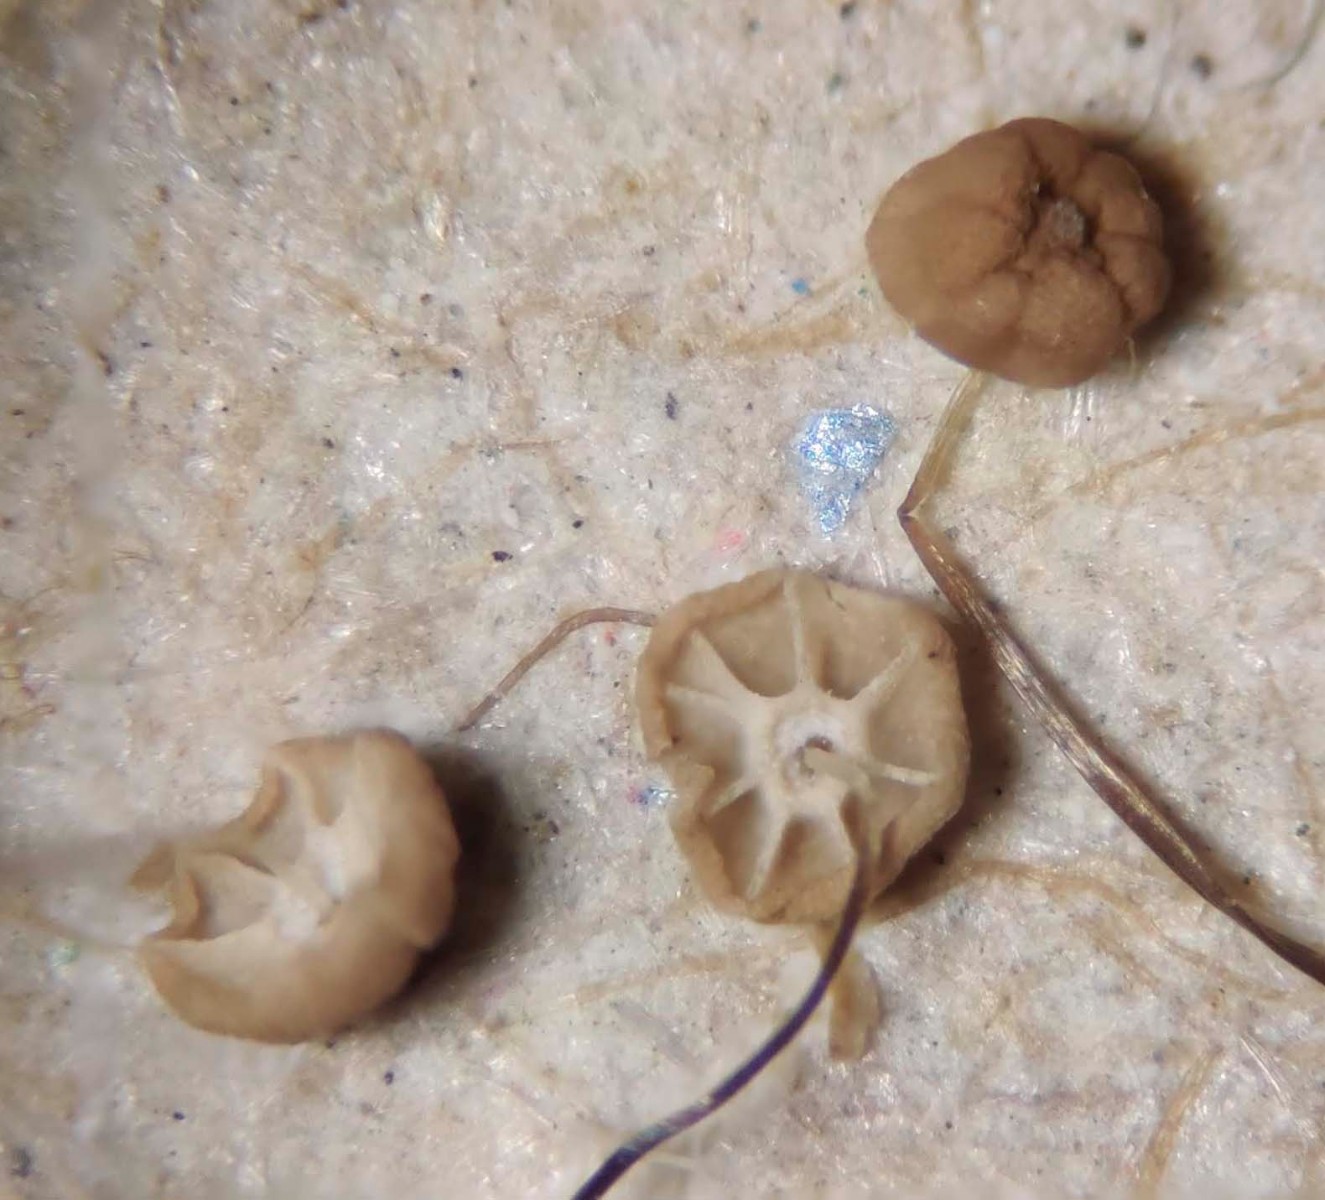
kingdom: Fungi
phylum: Basidiomycota
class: Agaricomycetes
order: Agaricales
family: Marasmiaceae
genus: Marasmius
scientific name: Marasmius limosus
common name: kær-bruskhat
